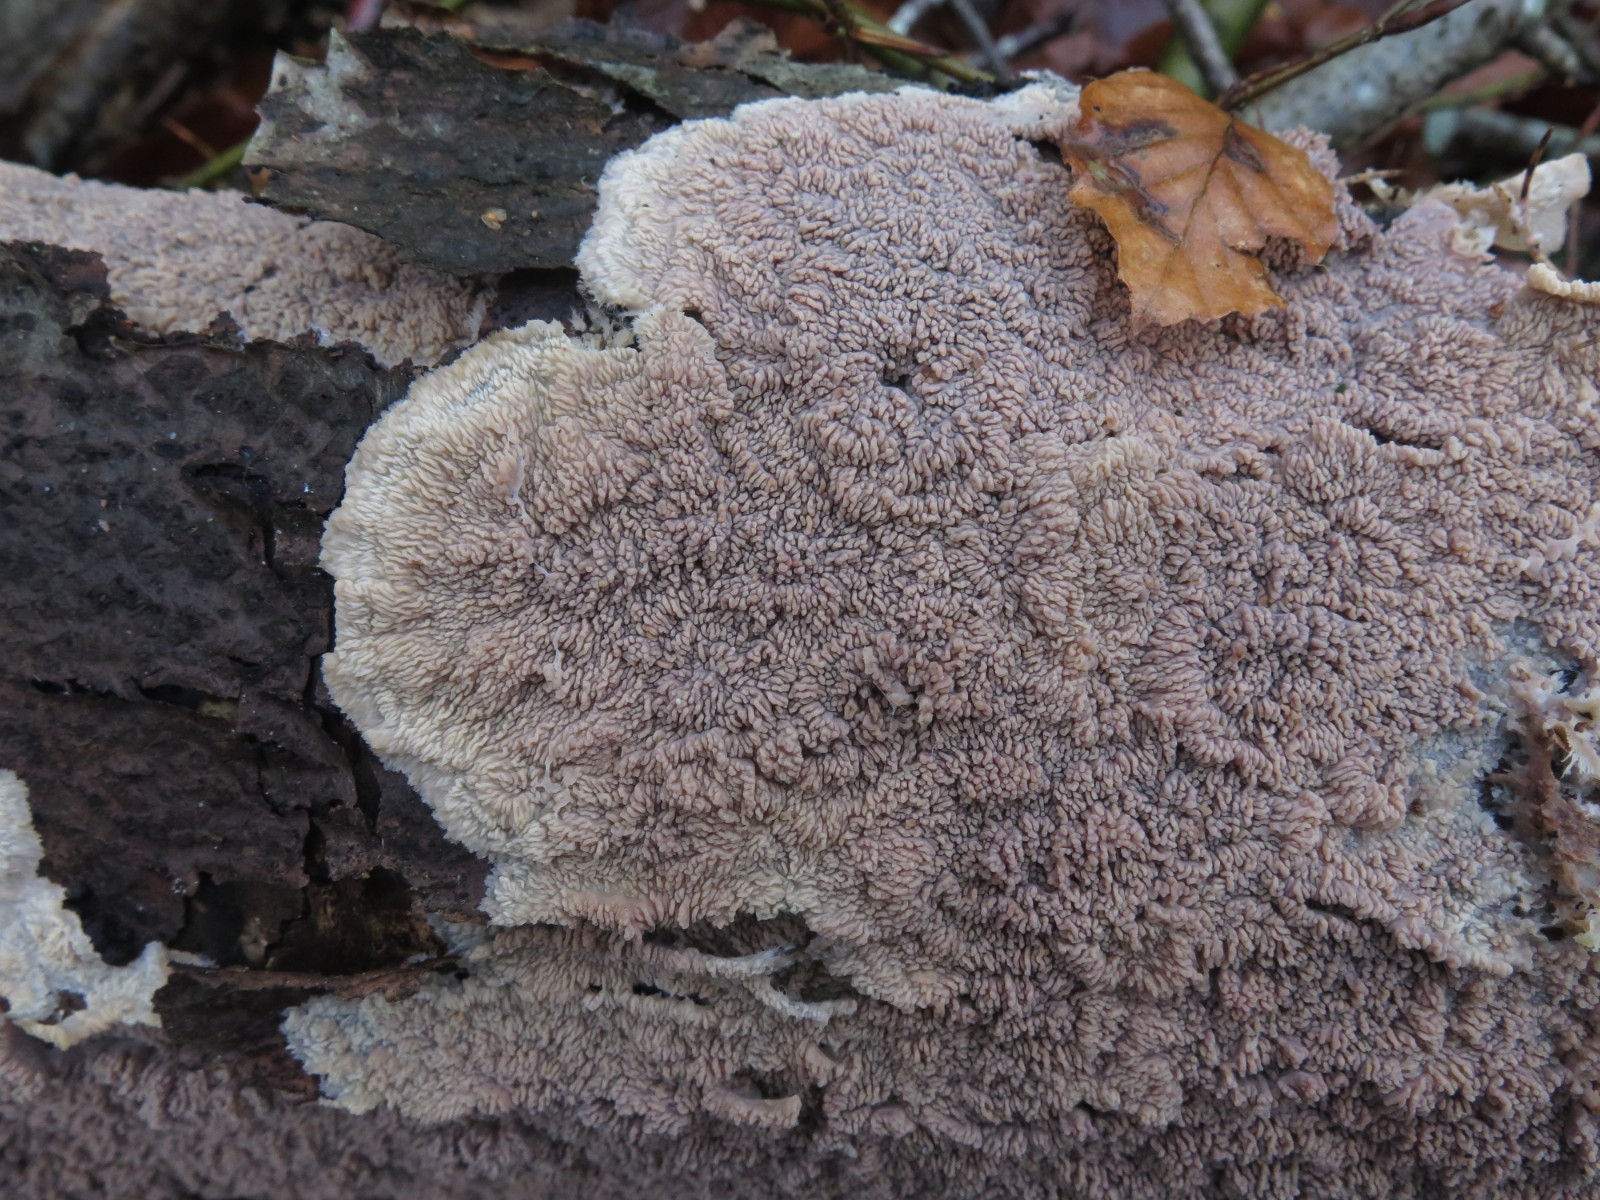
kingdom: Fungi
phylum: Basidiomycota
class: Agaricomycetes
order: Polyporales
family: Meruliaceae
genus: Phlebia
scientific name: Phlebia radiata
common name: stråle-åresvamp
